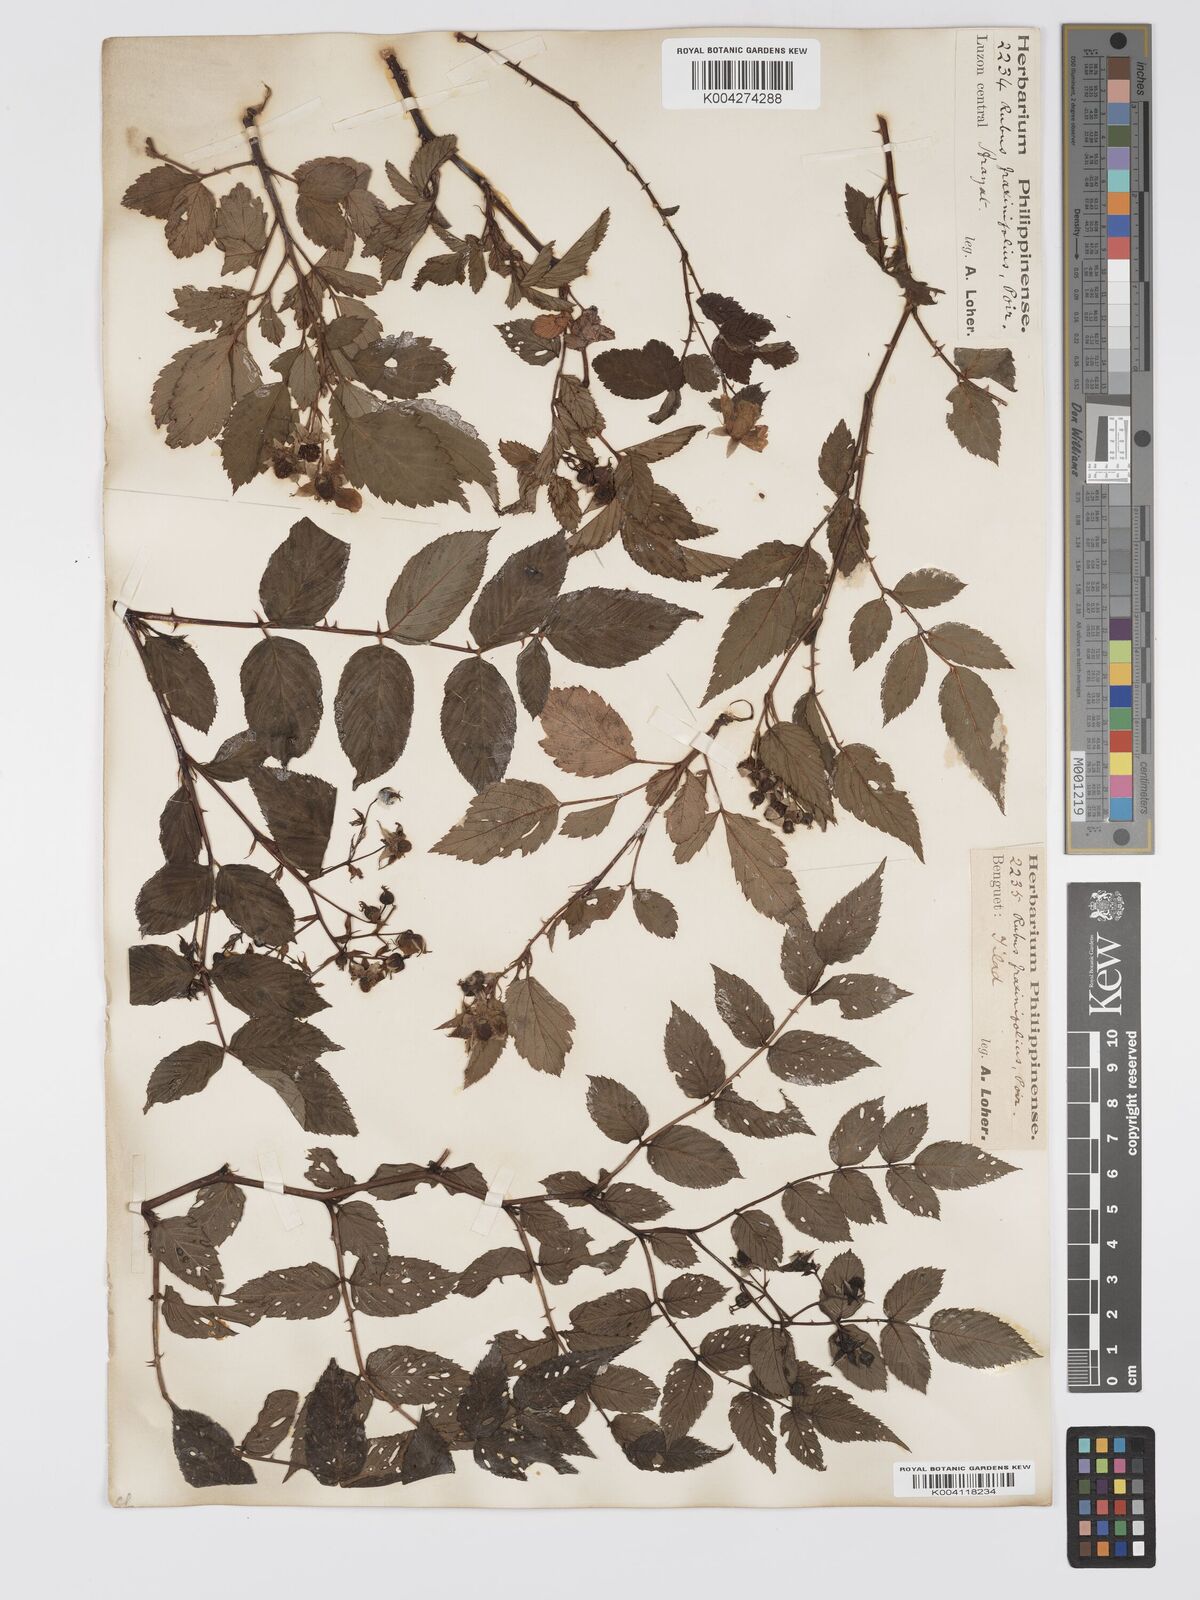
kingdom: Plantae
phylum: Tracheophyta
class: Magnoliopsida
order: Rosales
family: Rosaceae
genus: Rubus
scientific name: Rubus fraxinifolius
